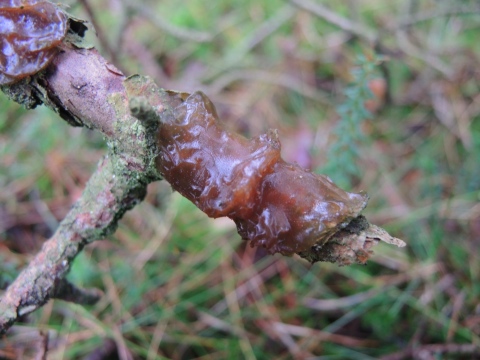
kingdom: Fungi
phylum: Basidiomycota
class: Agaricomycetes
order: Auriculariales
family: Auriculariaceae
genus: Exidia
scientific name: Exidia saccharina
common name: kandis-bævretop
